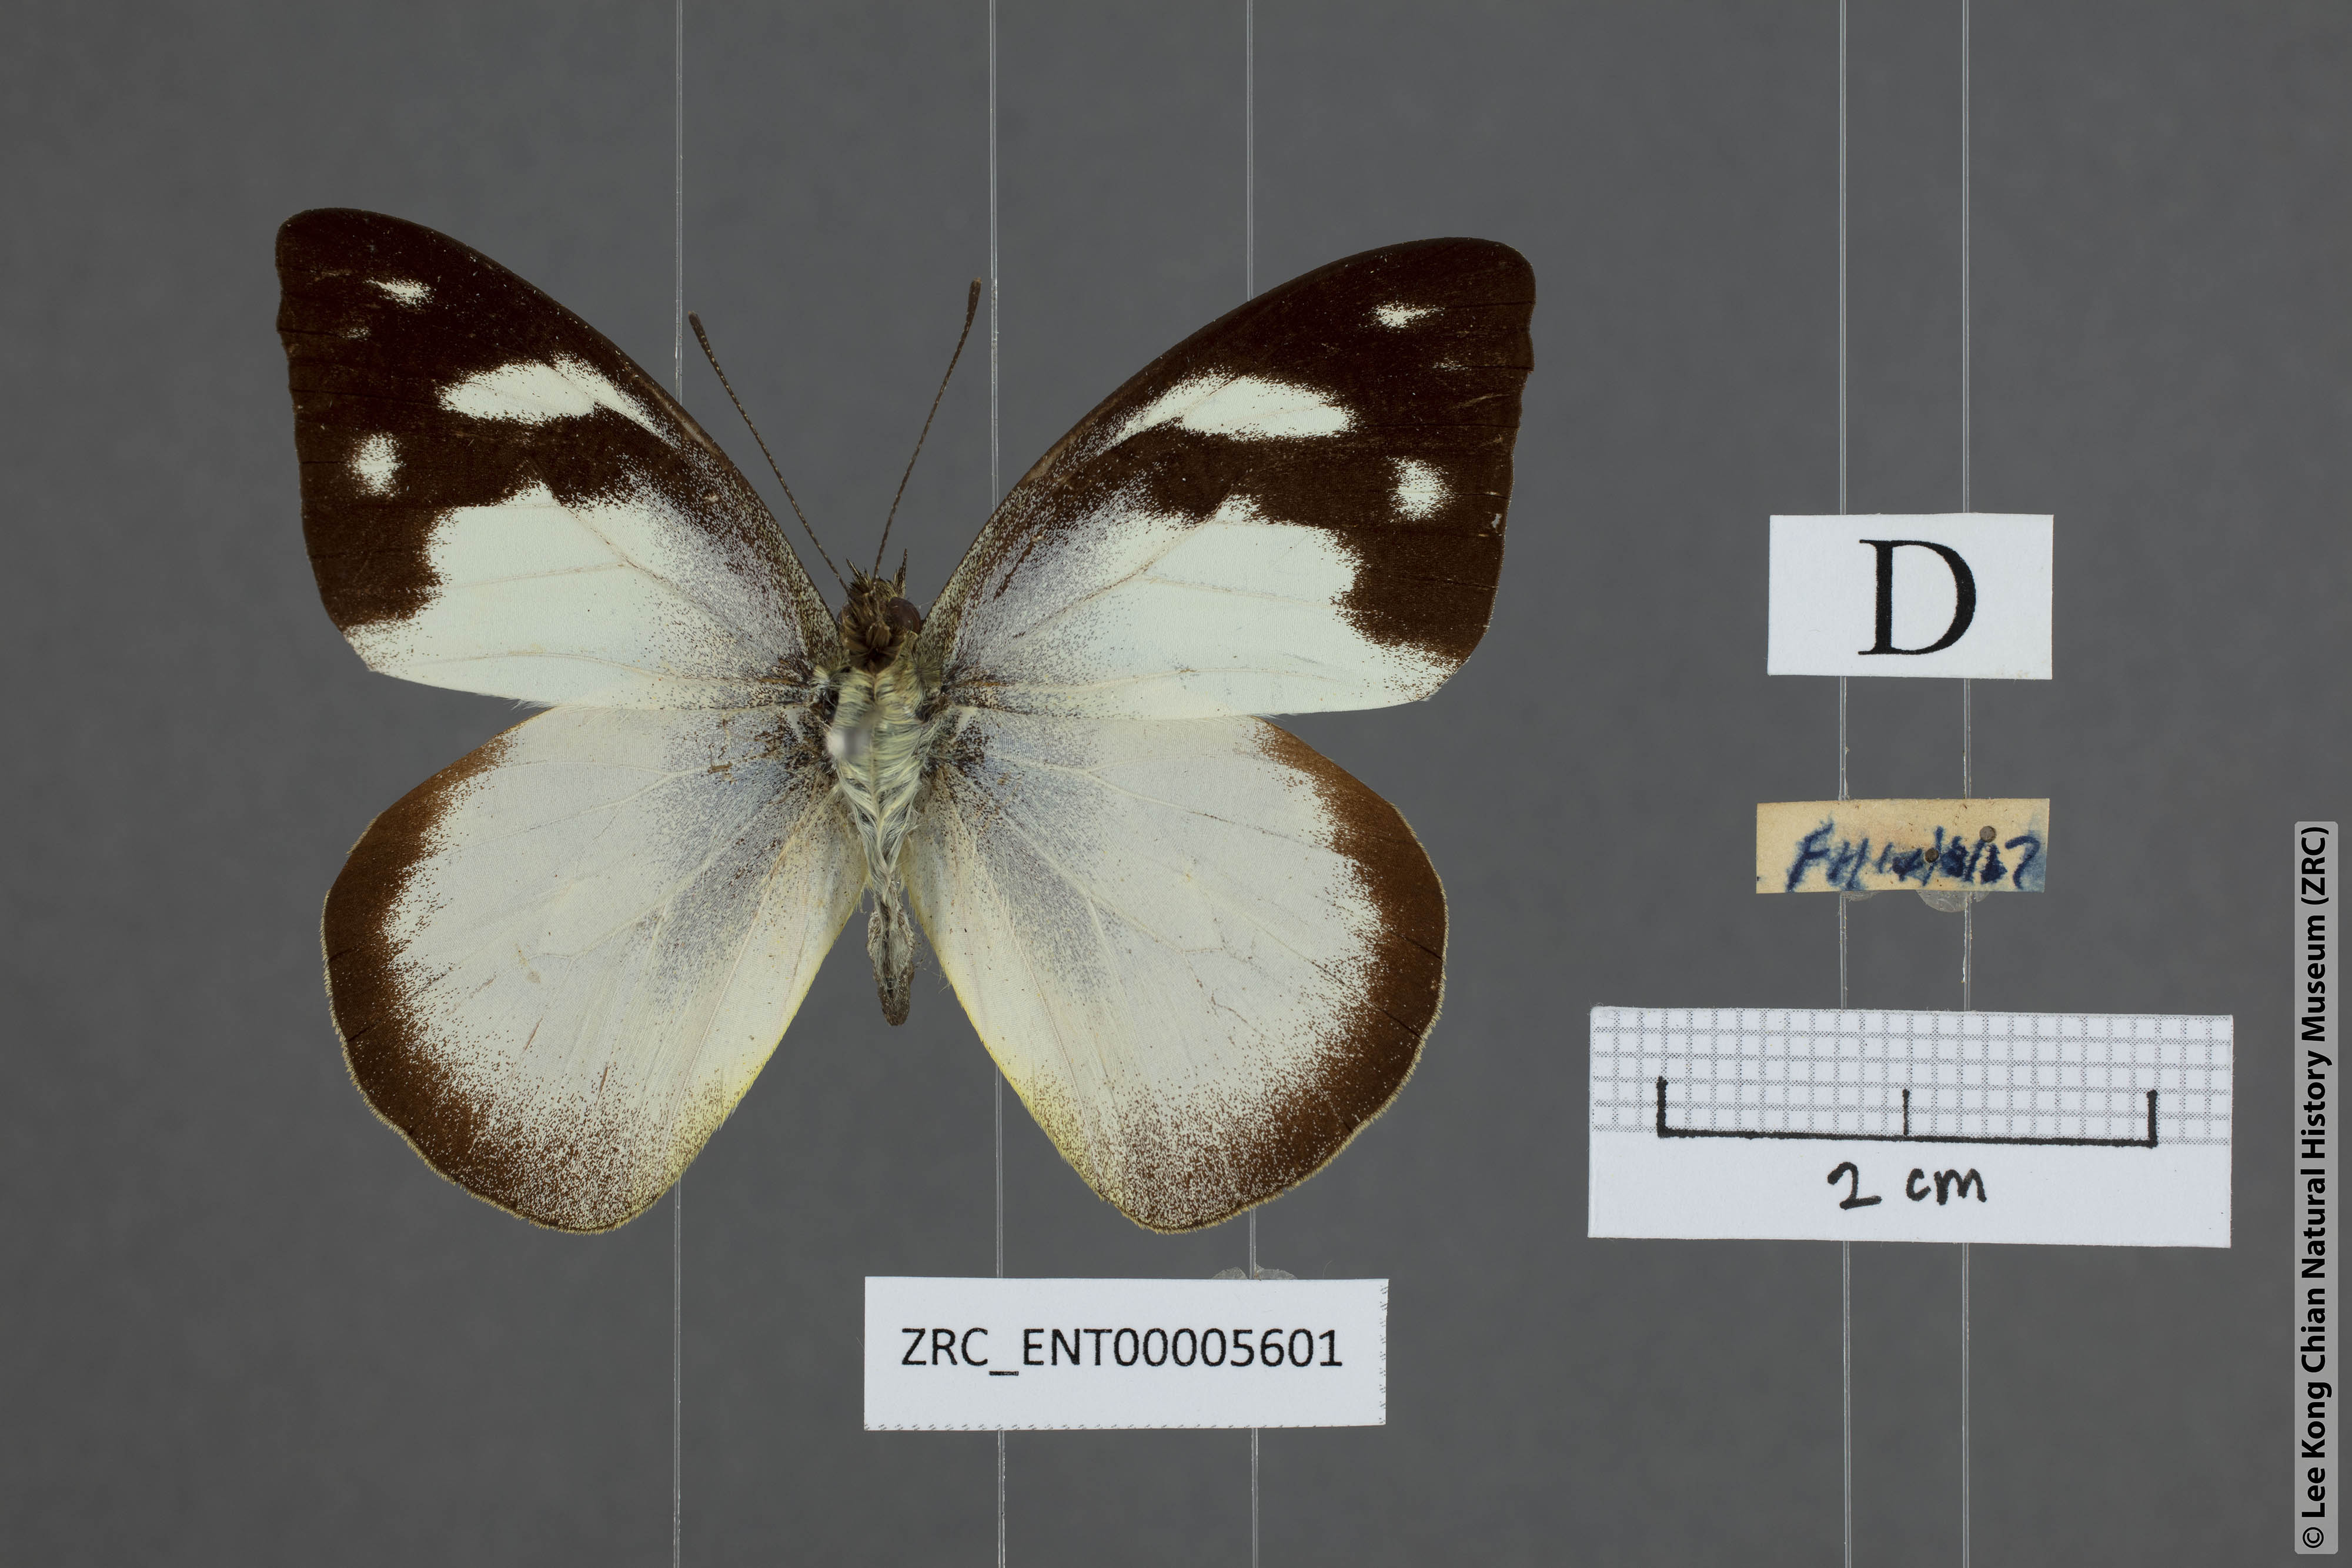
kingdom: Animalia
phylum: Arthropoda
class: Insecta
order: Lepidoptera
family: Pieridae
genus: Appias
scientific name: Appias pandione
